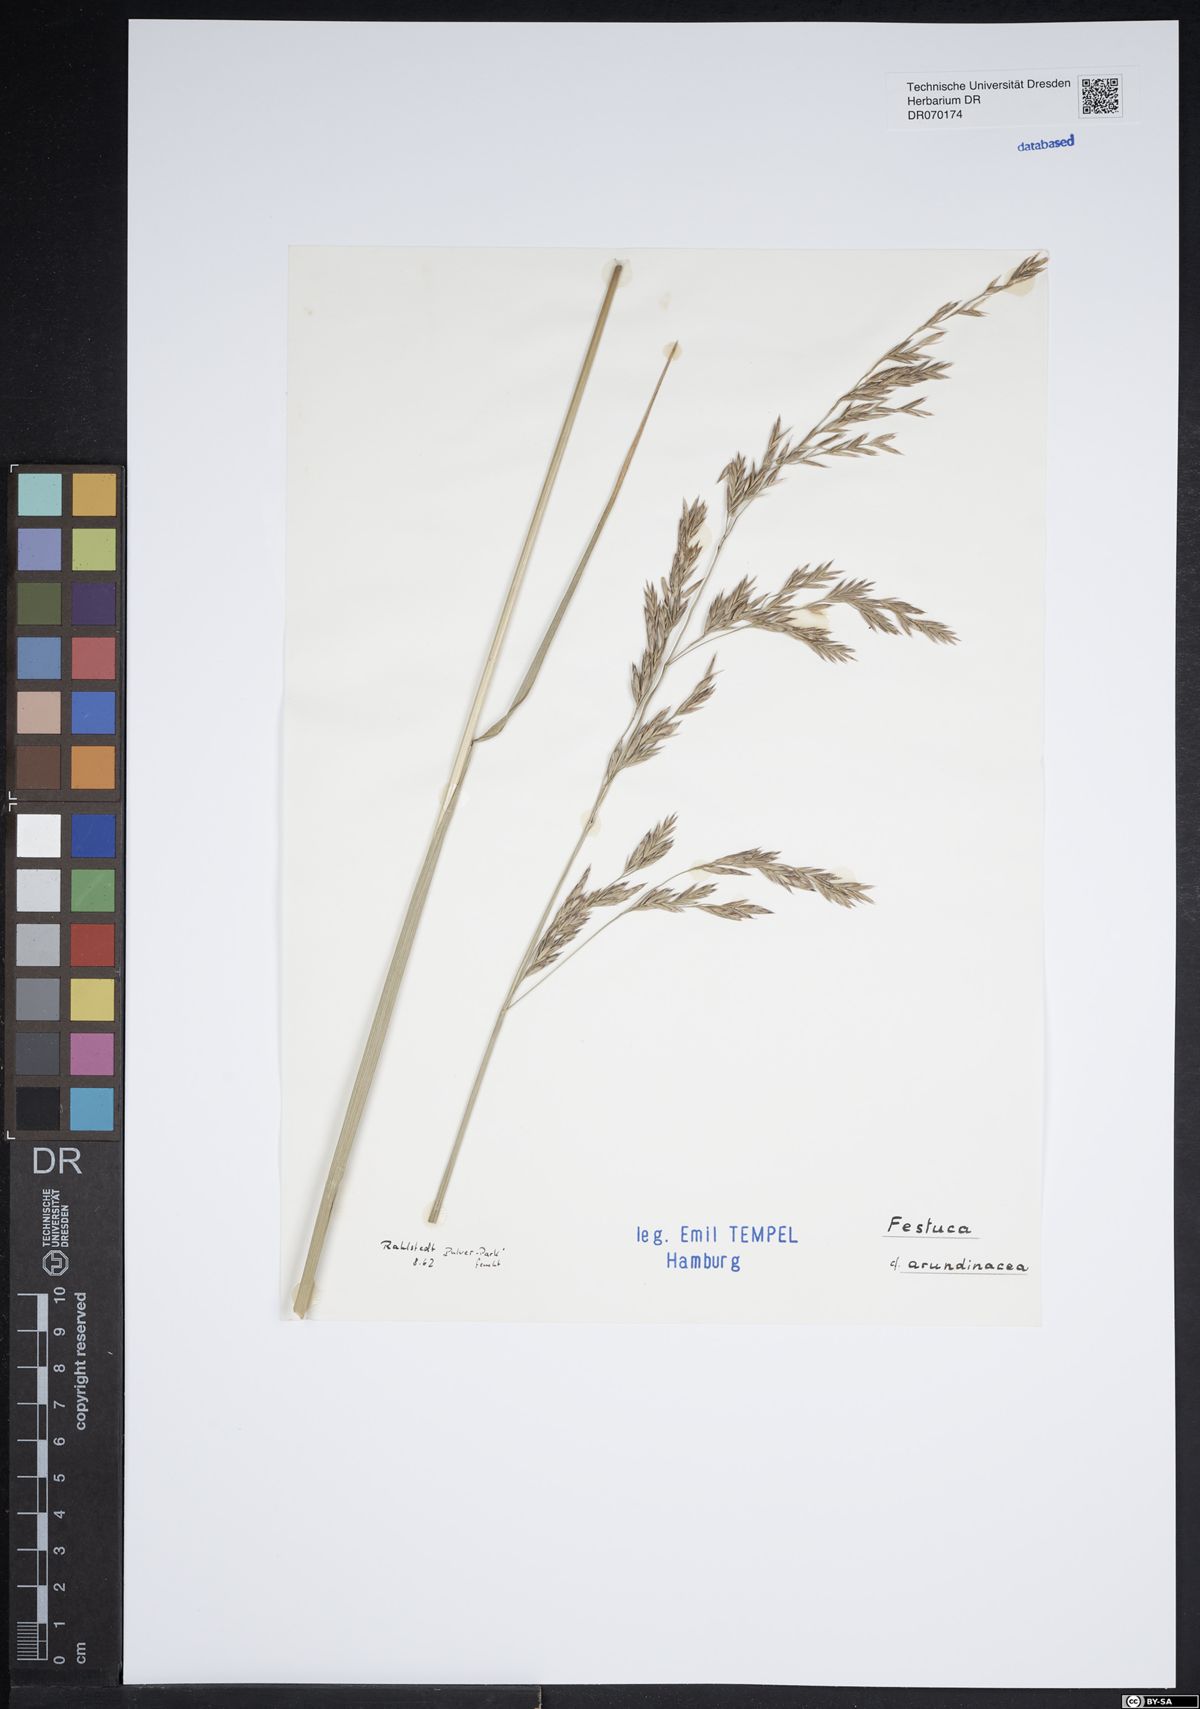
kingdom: Plantae
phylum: Tracheophyta
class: Liliopsida
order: Poales
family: Poaceae
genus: Lolium
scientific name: Lolium arundinaceum
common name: Reed fescue
